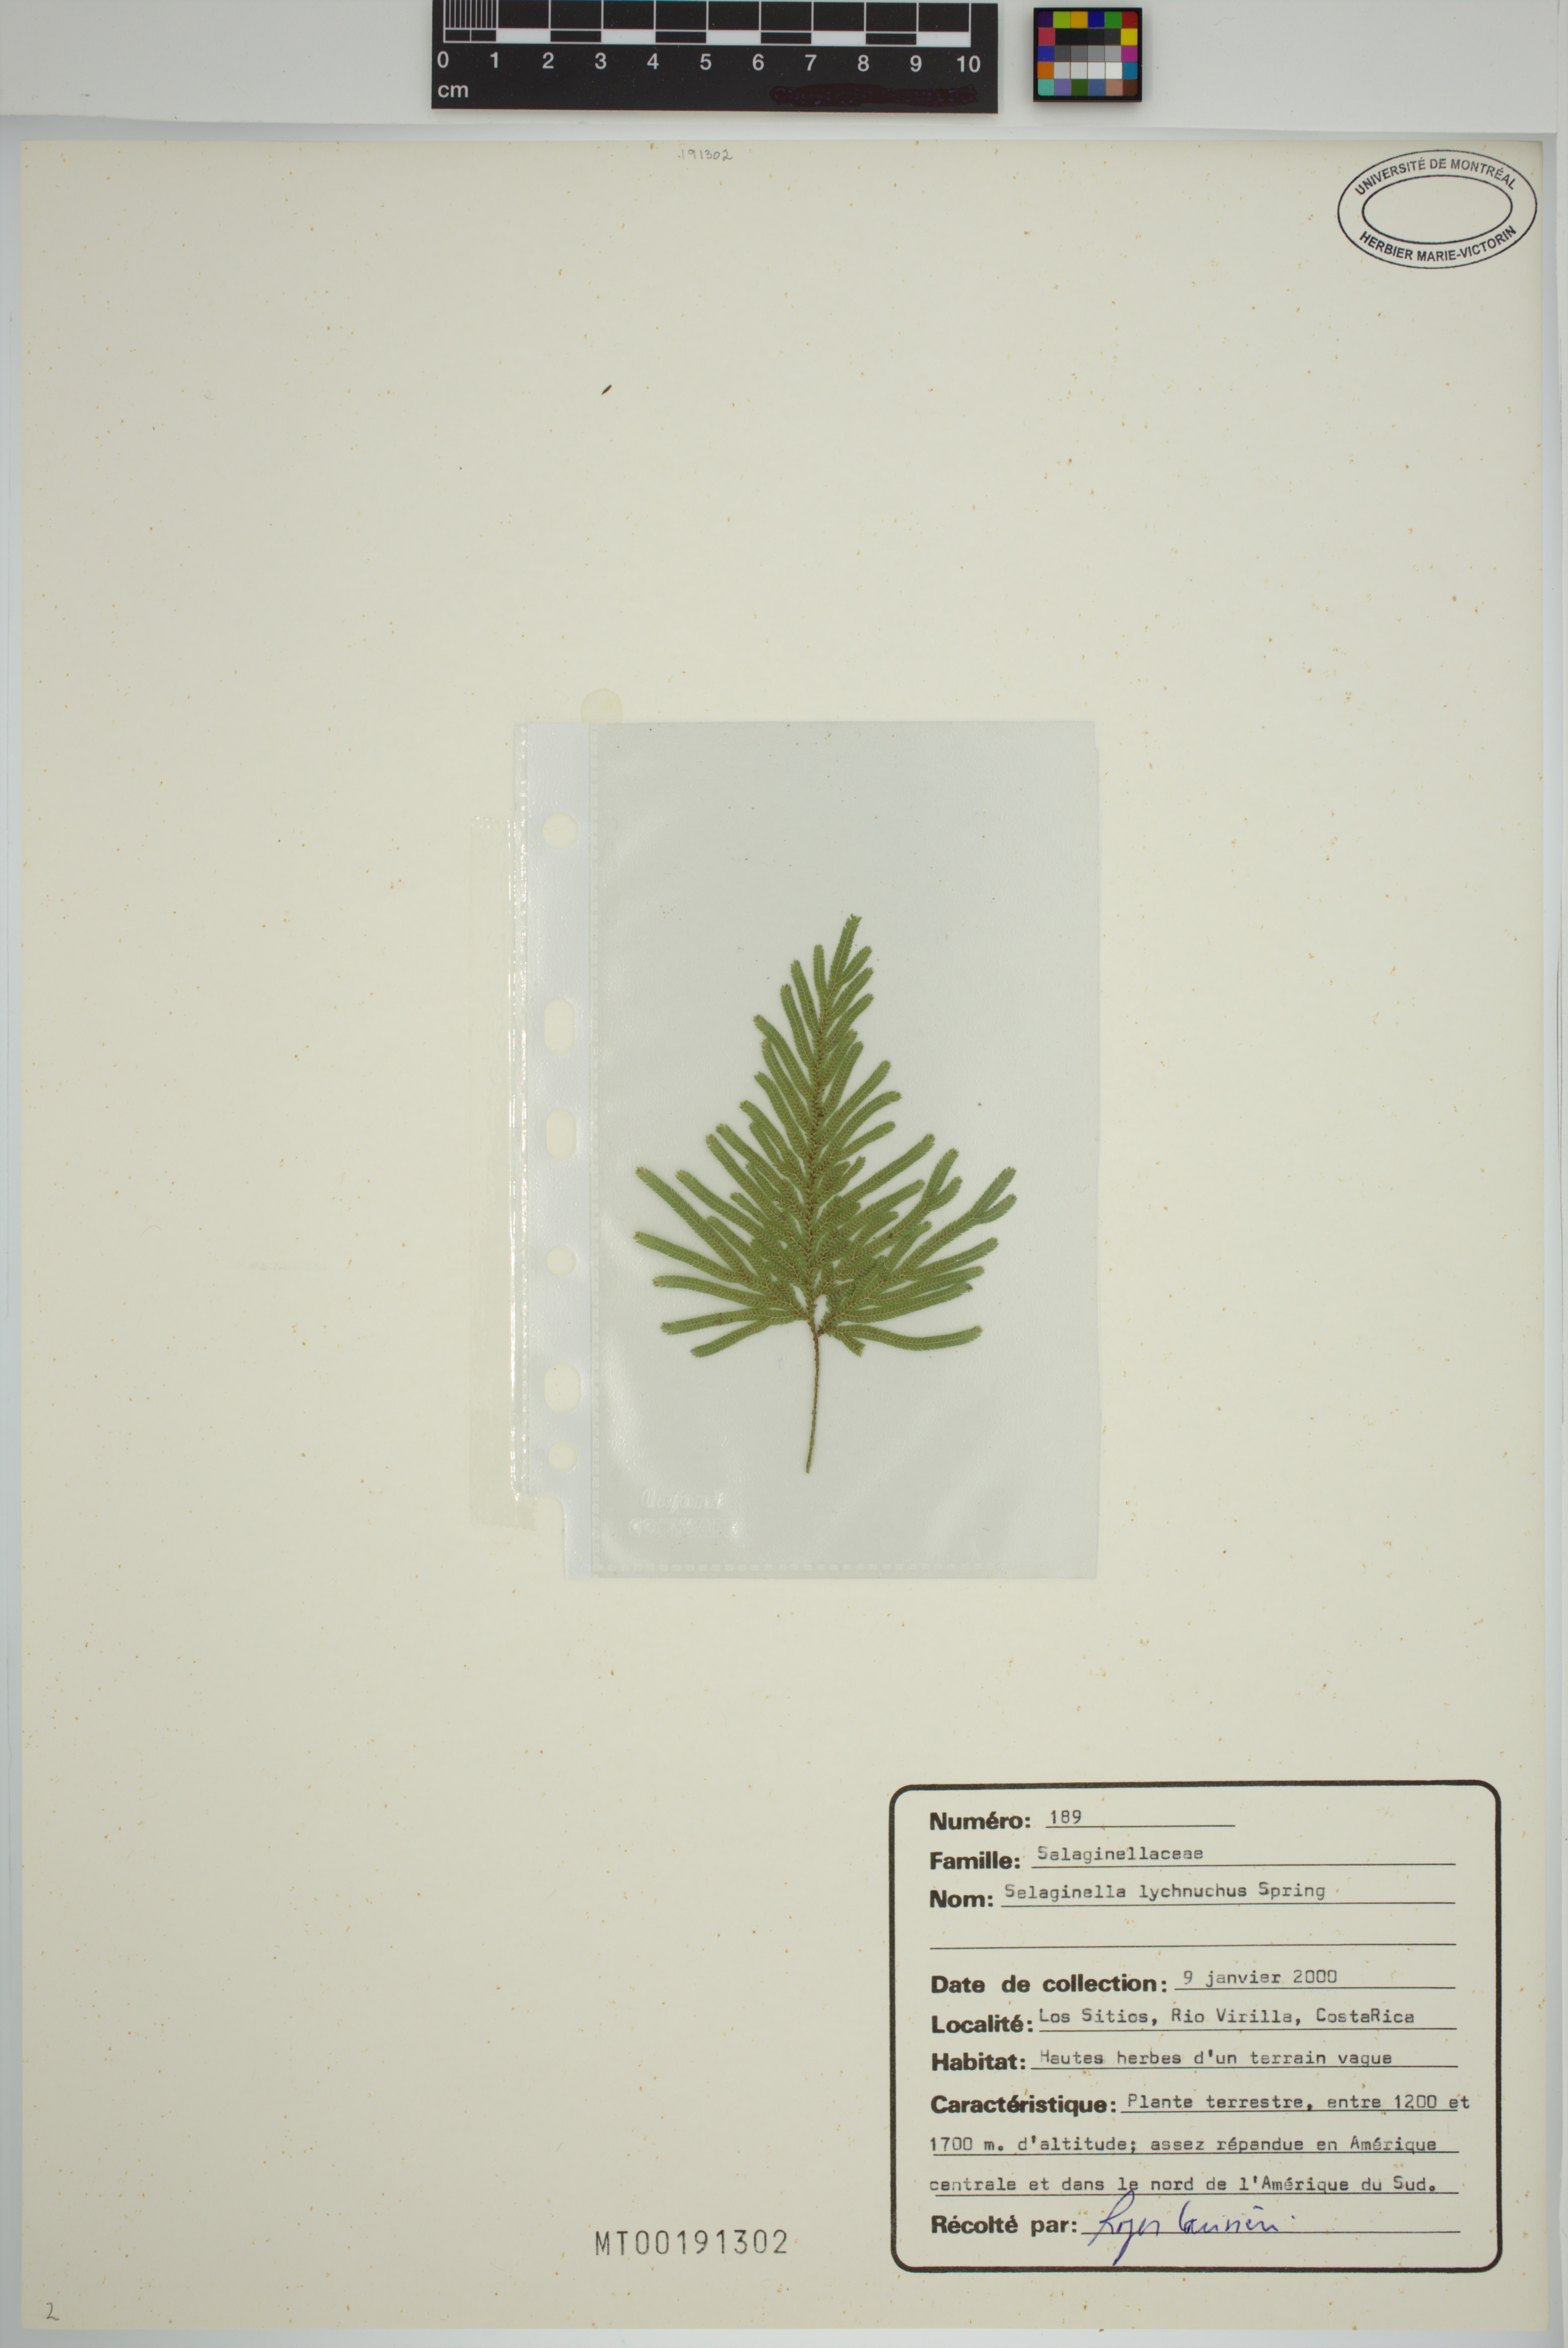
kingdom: Plantae
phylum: Tracheophyta
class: Lycopodiopsida
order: Selaginellales
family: Selaginellaceae
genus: Selaginella
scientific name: Selaginella lychnuchus
